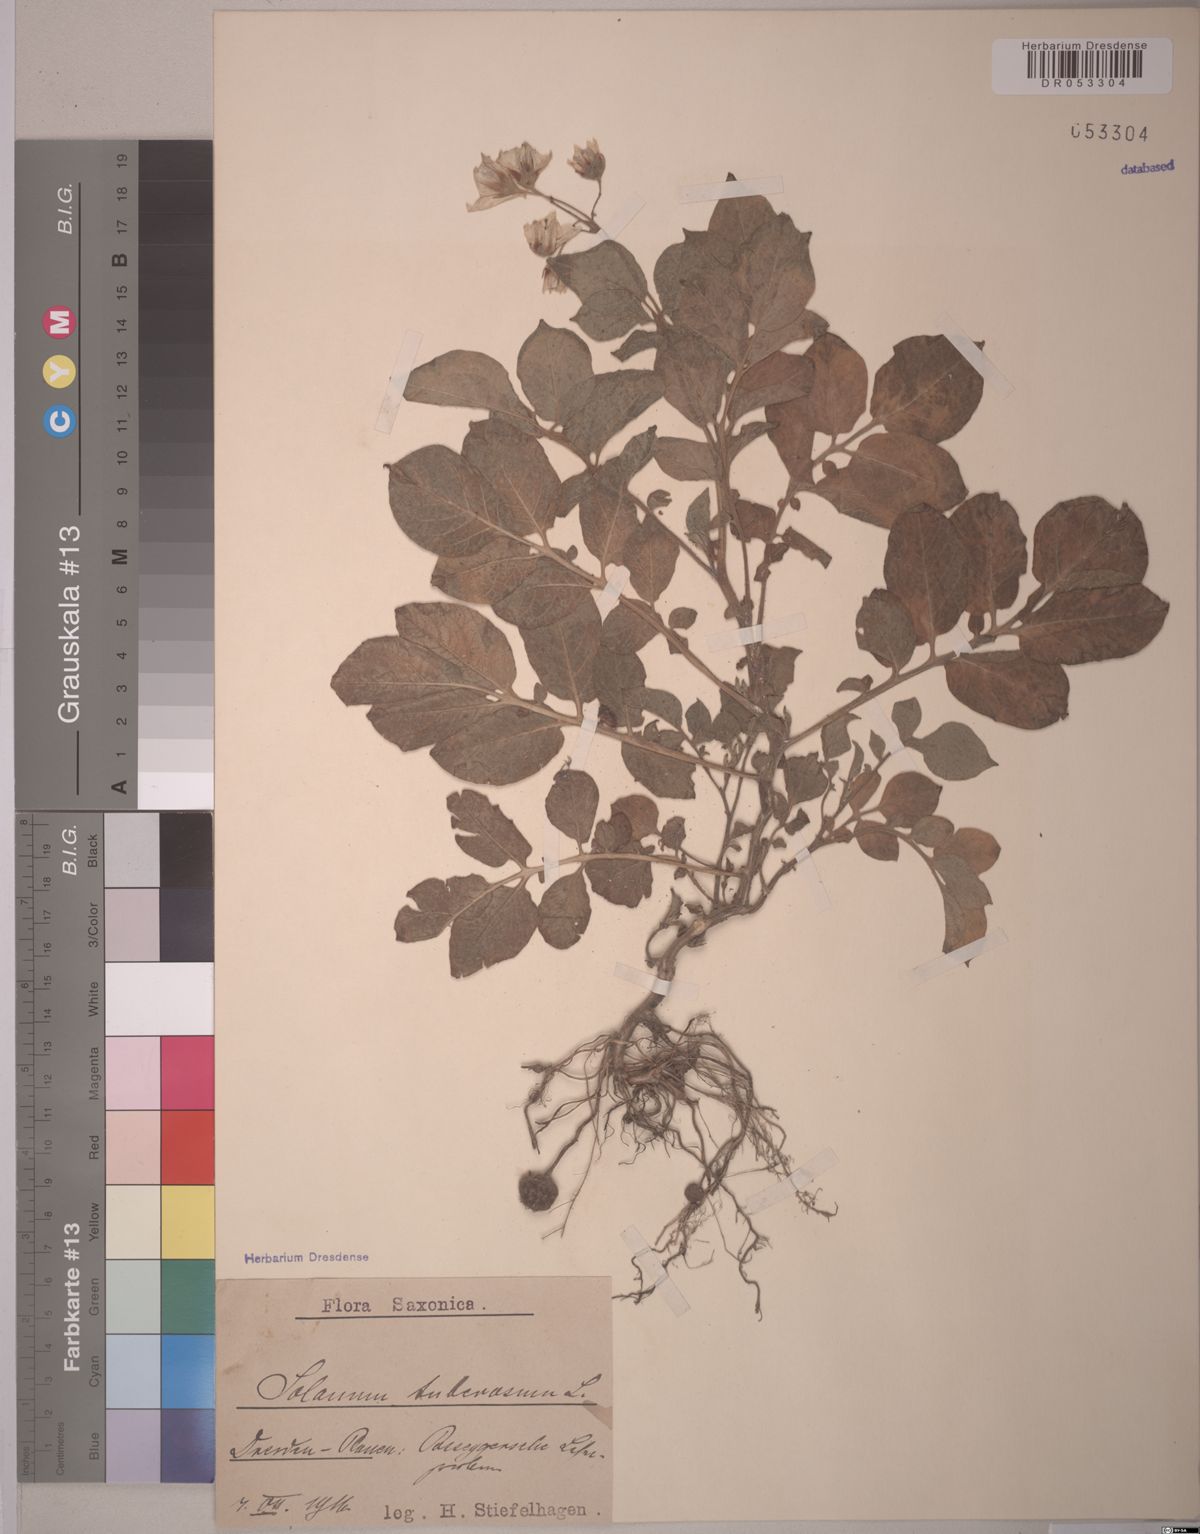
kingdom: Plantae
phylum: Tracheophyta
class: Magnoliopsida
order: Solanales
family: Solanaceae
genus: Solanum
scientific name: Solanum tuberosum
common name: Potato
